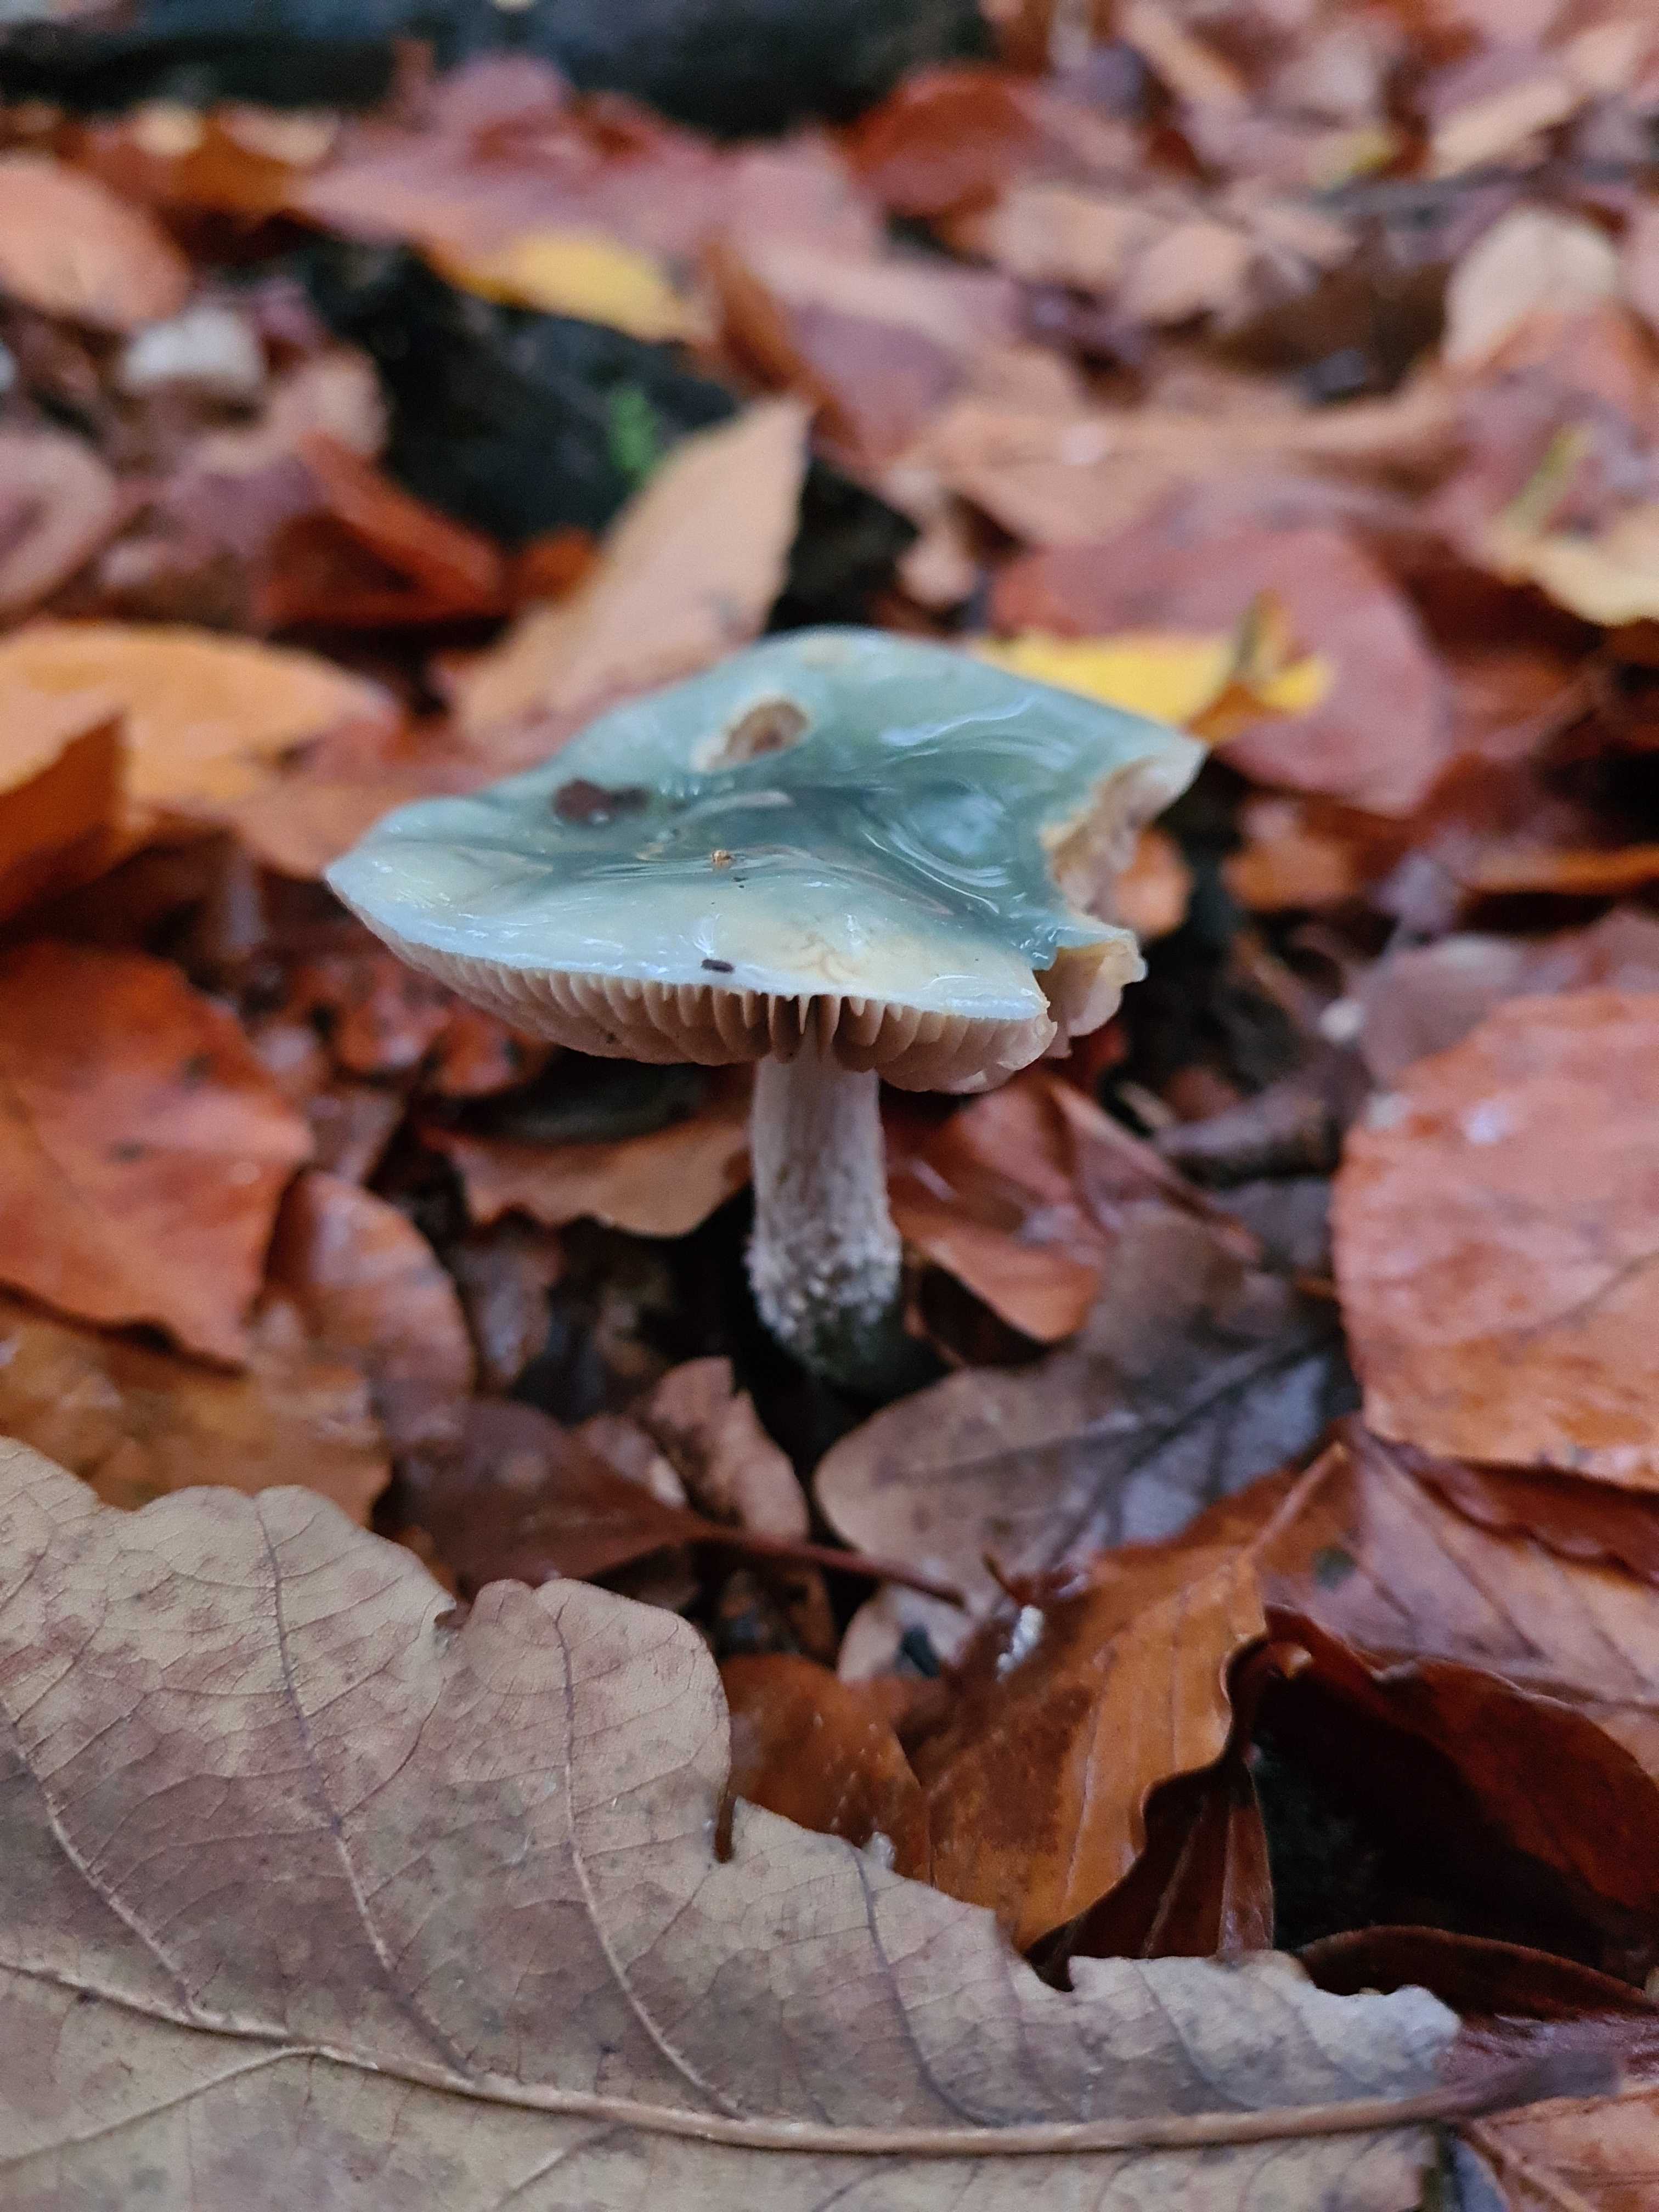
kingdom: Fungi
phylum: Basidiomycota
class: Agaricomycetes
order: Agaricales
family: Strophariaceae
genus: Stropharia
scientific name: Stropharia cyanea
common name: blågrøn bredblad
